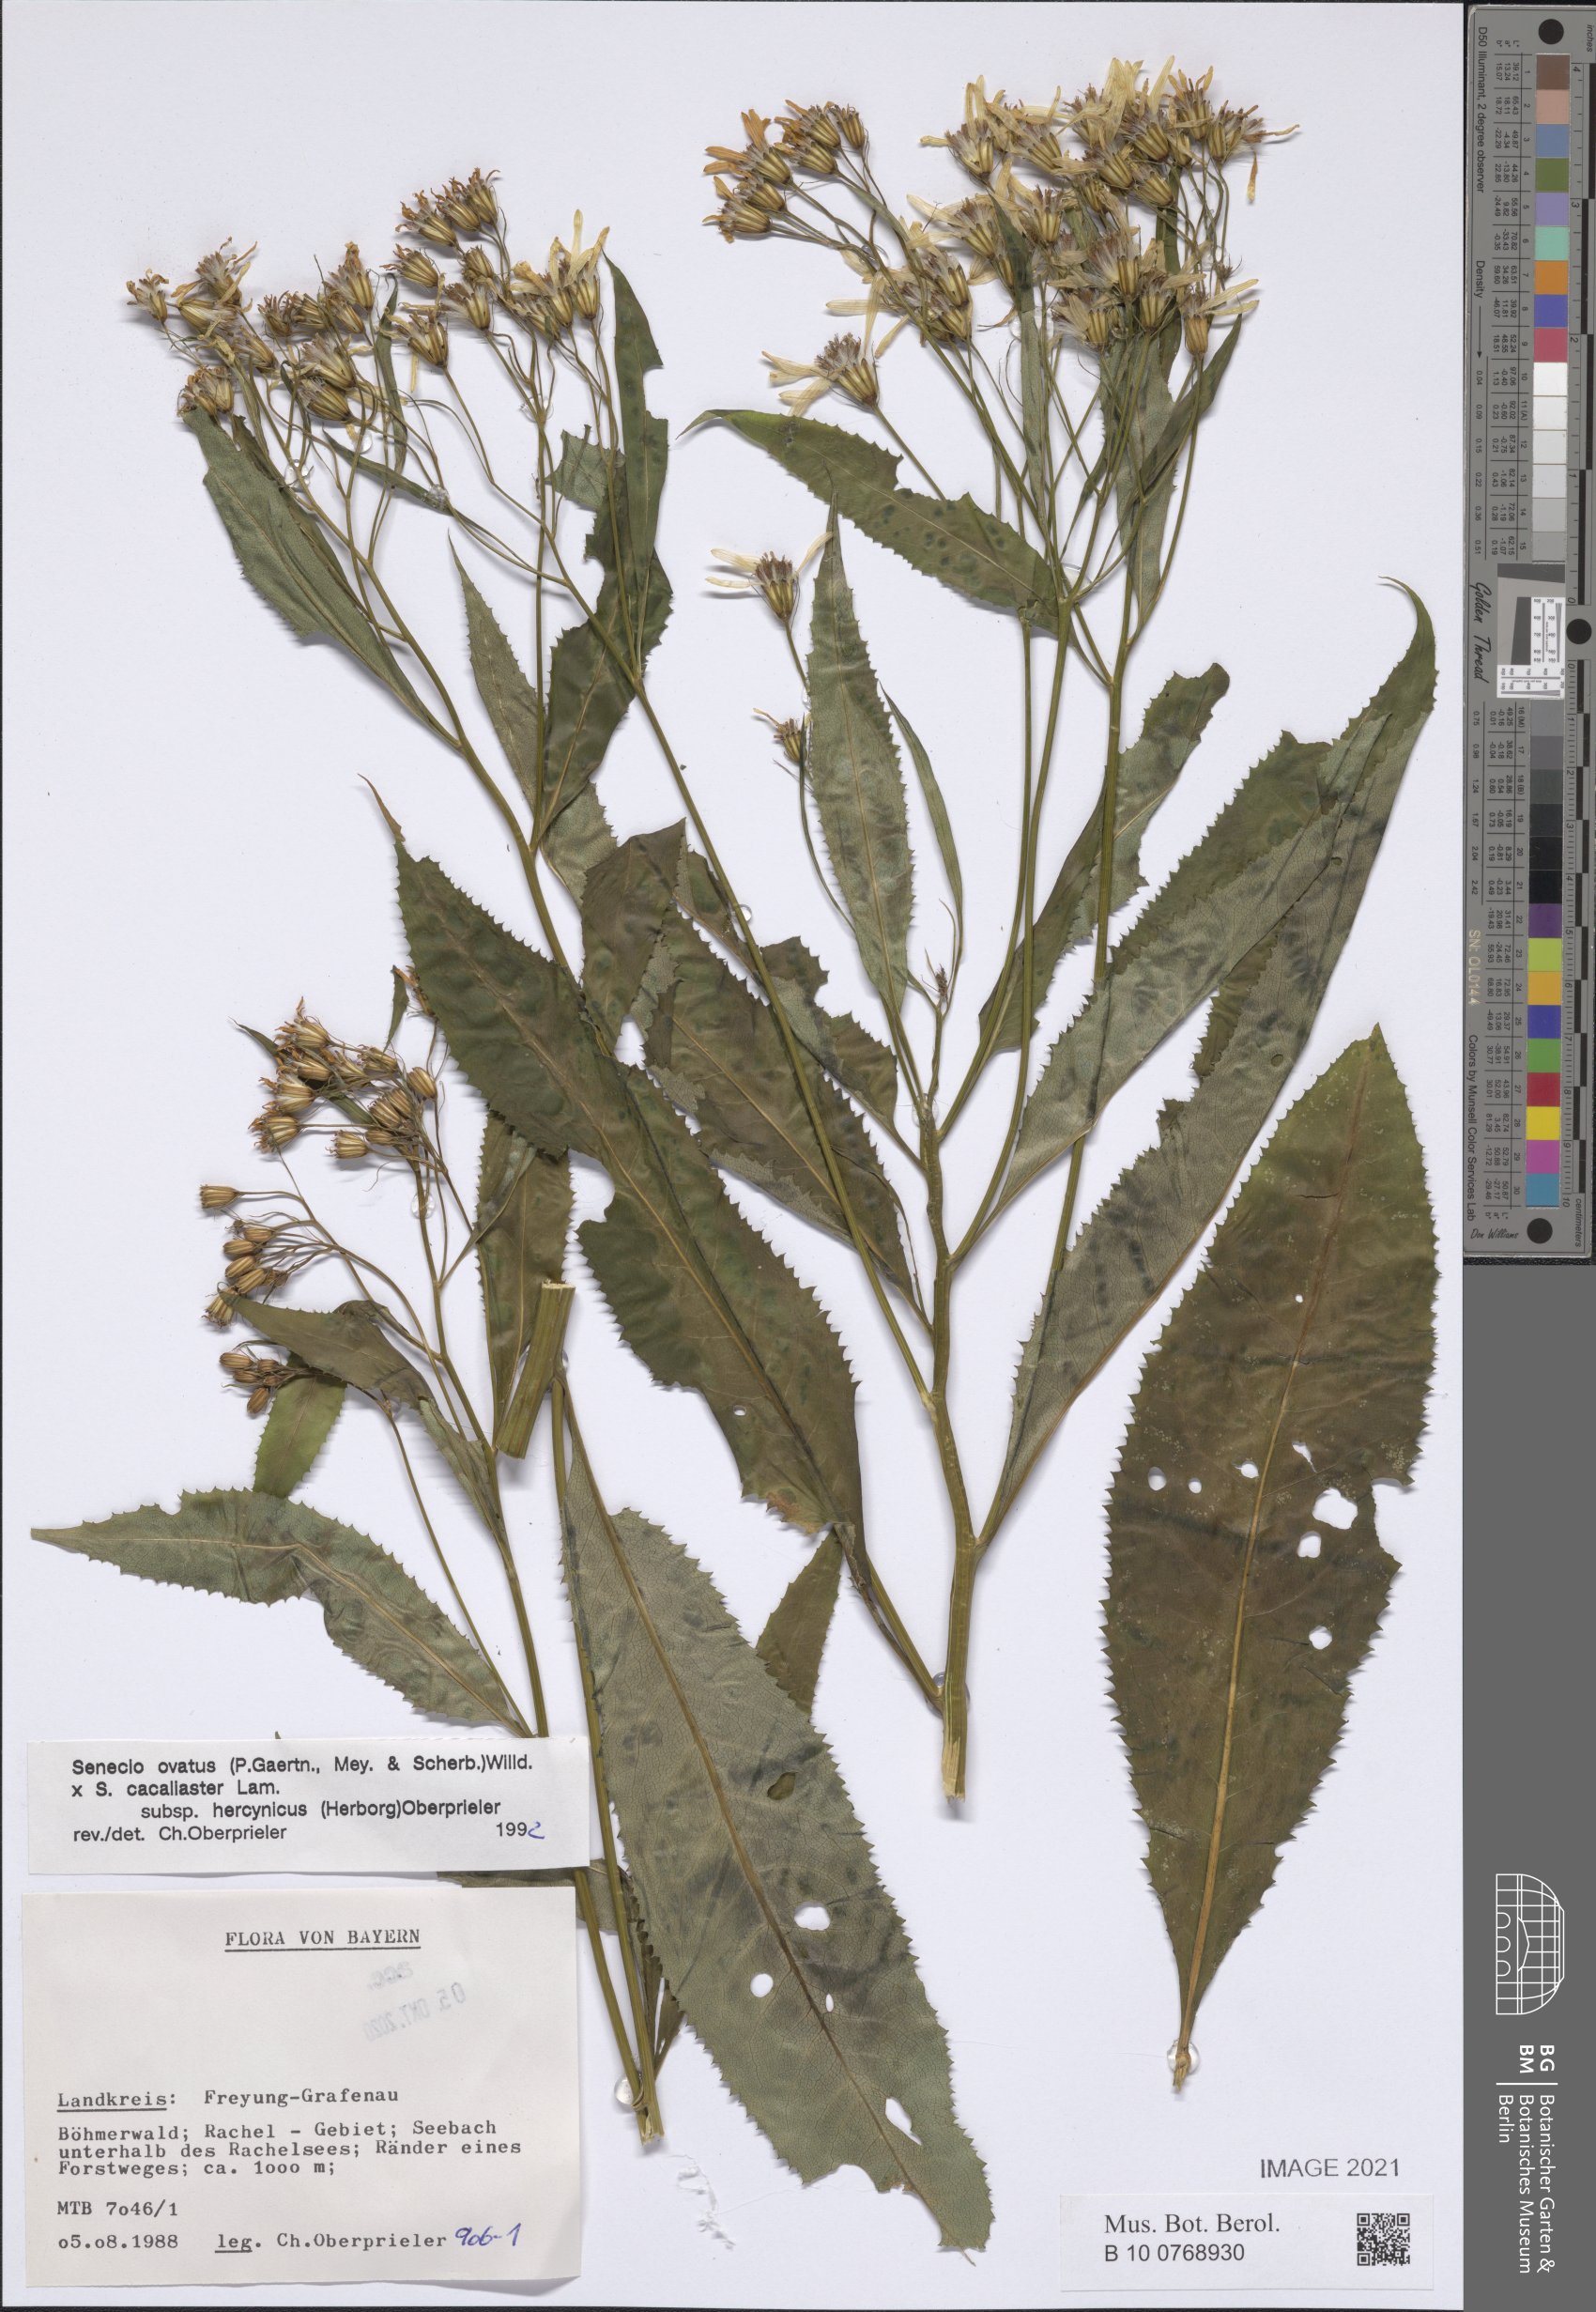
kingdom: Plantae
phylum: Tracheophyta
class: Magnoliopsida
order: Asterales
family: Asteraceae
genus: Senecio
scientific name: Senecio ovatus
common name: Wood ragwort
